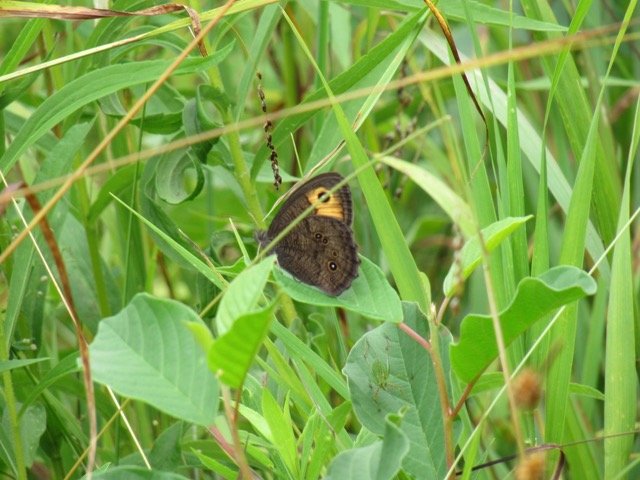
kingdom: Animalia
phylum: Arthropoda
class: Insecta
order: Lepidoptera
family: Nymphalidae
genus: Cercyonis
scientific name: Cercyonis pegala
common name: Common Wood-Nymph
